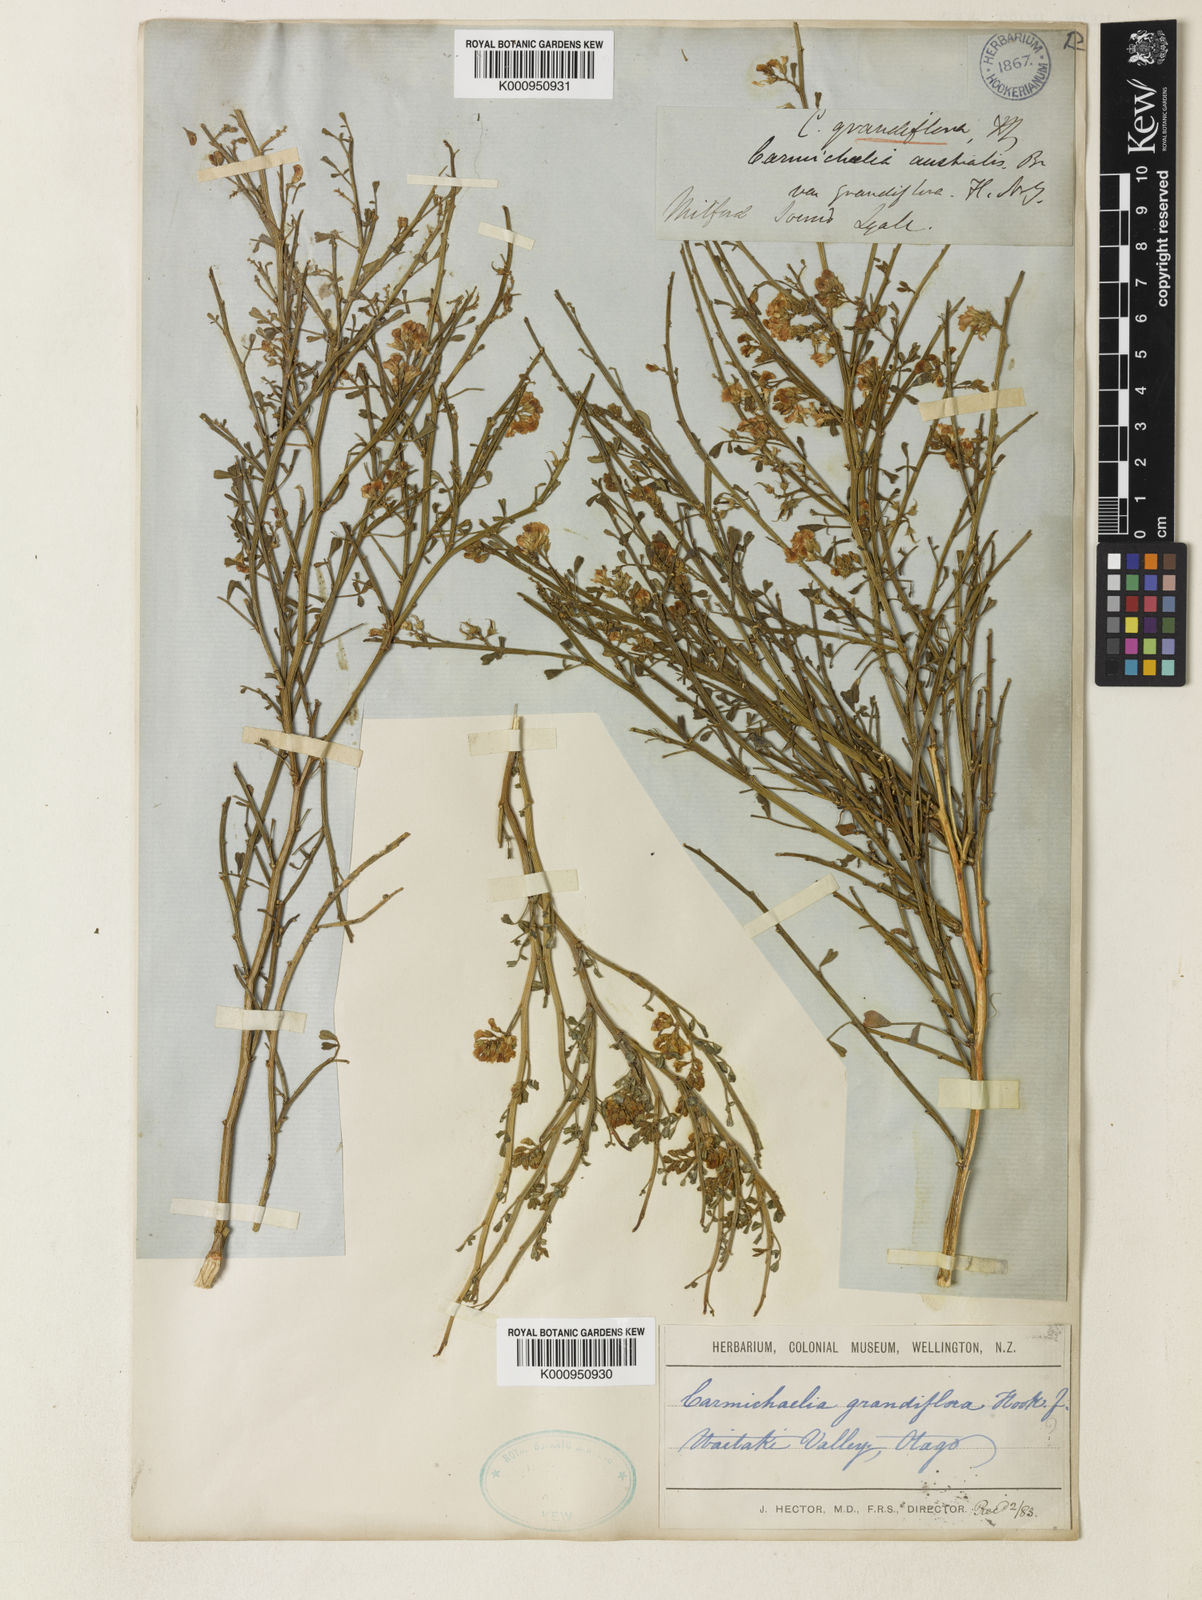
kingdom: Plantae
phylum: Tracheophyta
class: Magnoliopsida
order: Fabales
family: Fabaceae
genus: Carmichaelia
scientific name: Carmichaelia arborea
